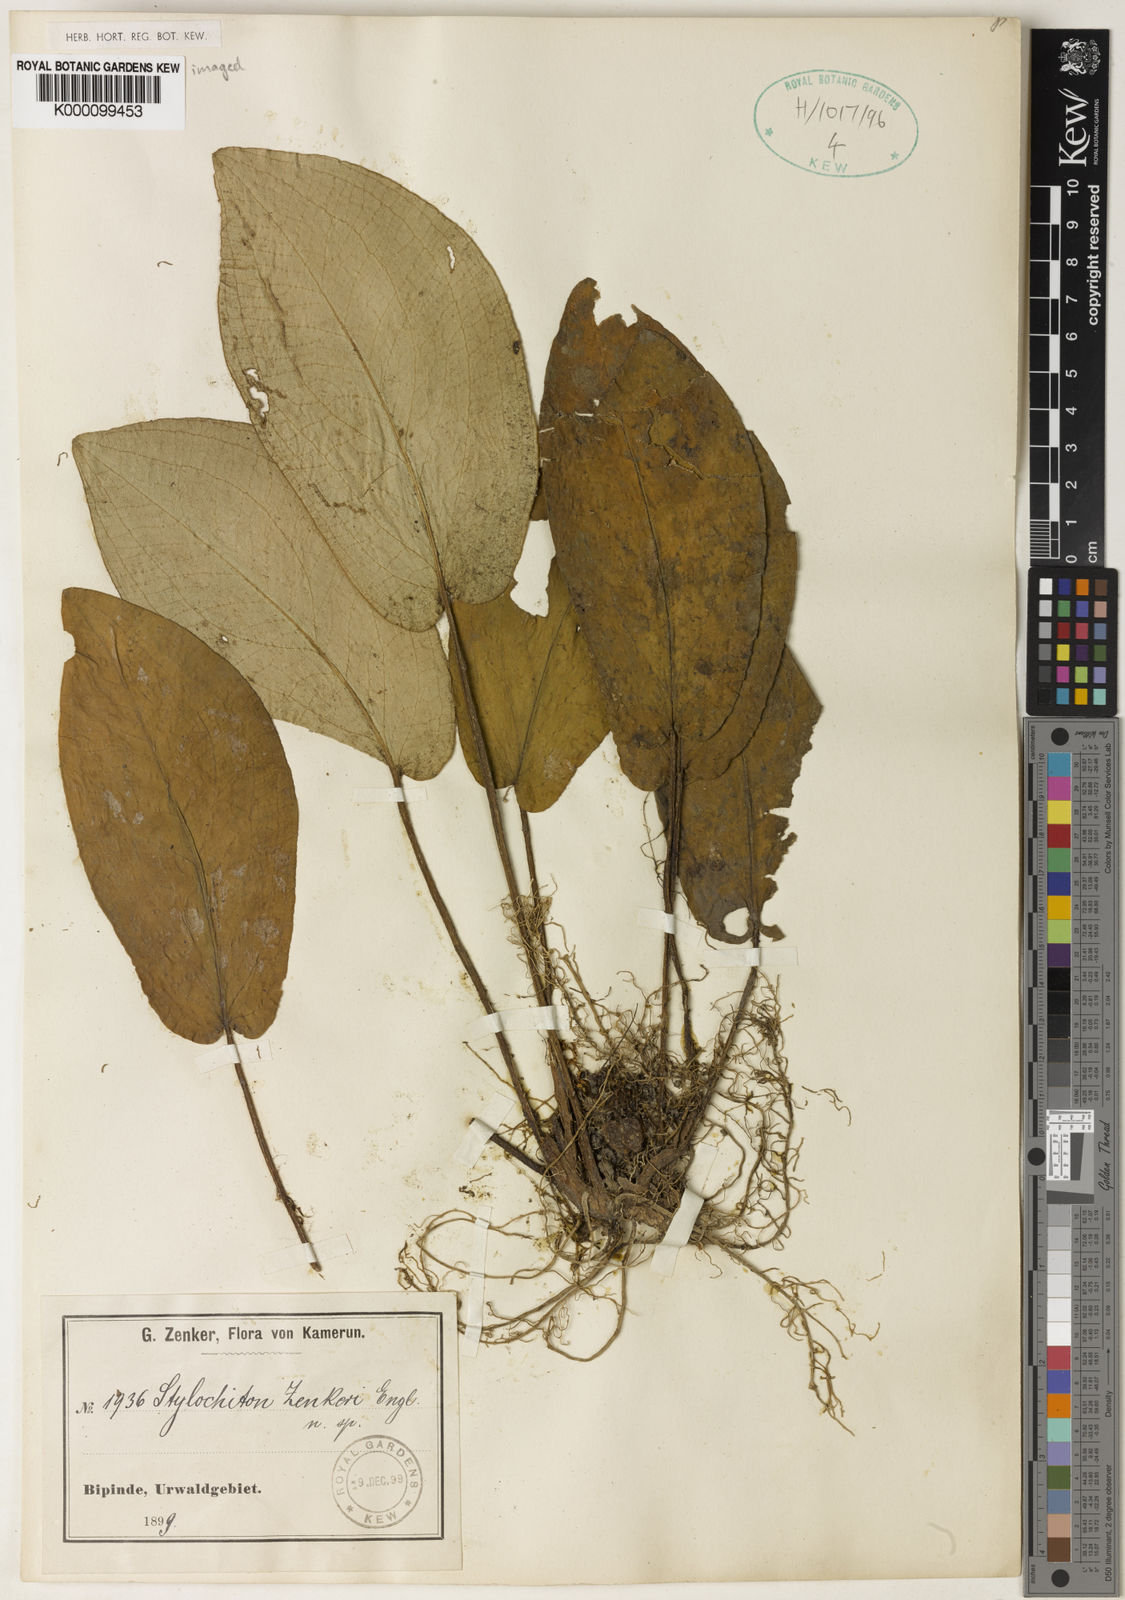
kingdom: Plantae
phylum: Tracheophyta
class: Liliopsida
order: Alismatales
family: Araceae
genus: Stylochaeton
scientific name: Stylochaeton zenkeri
